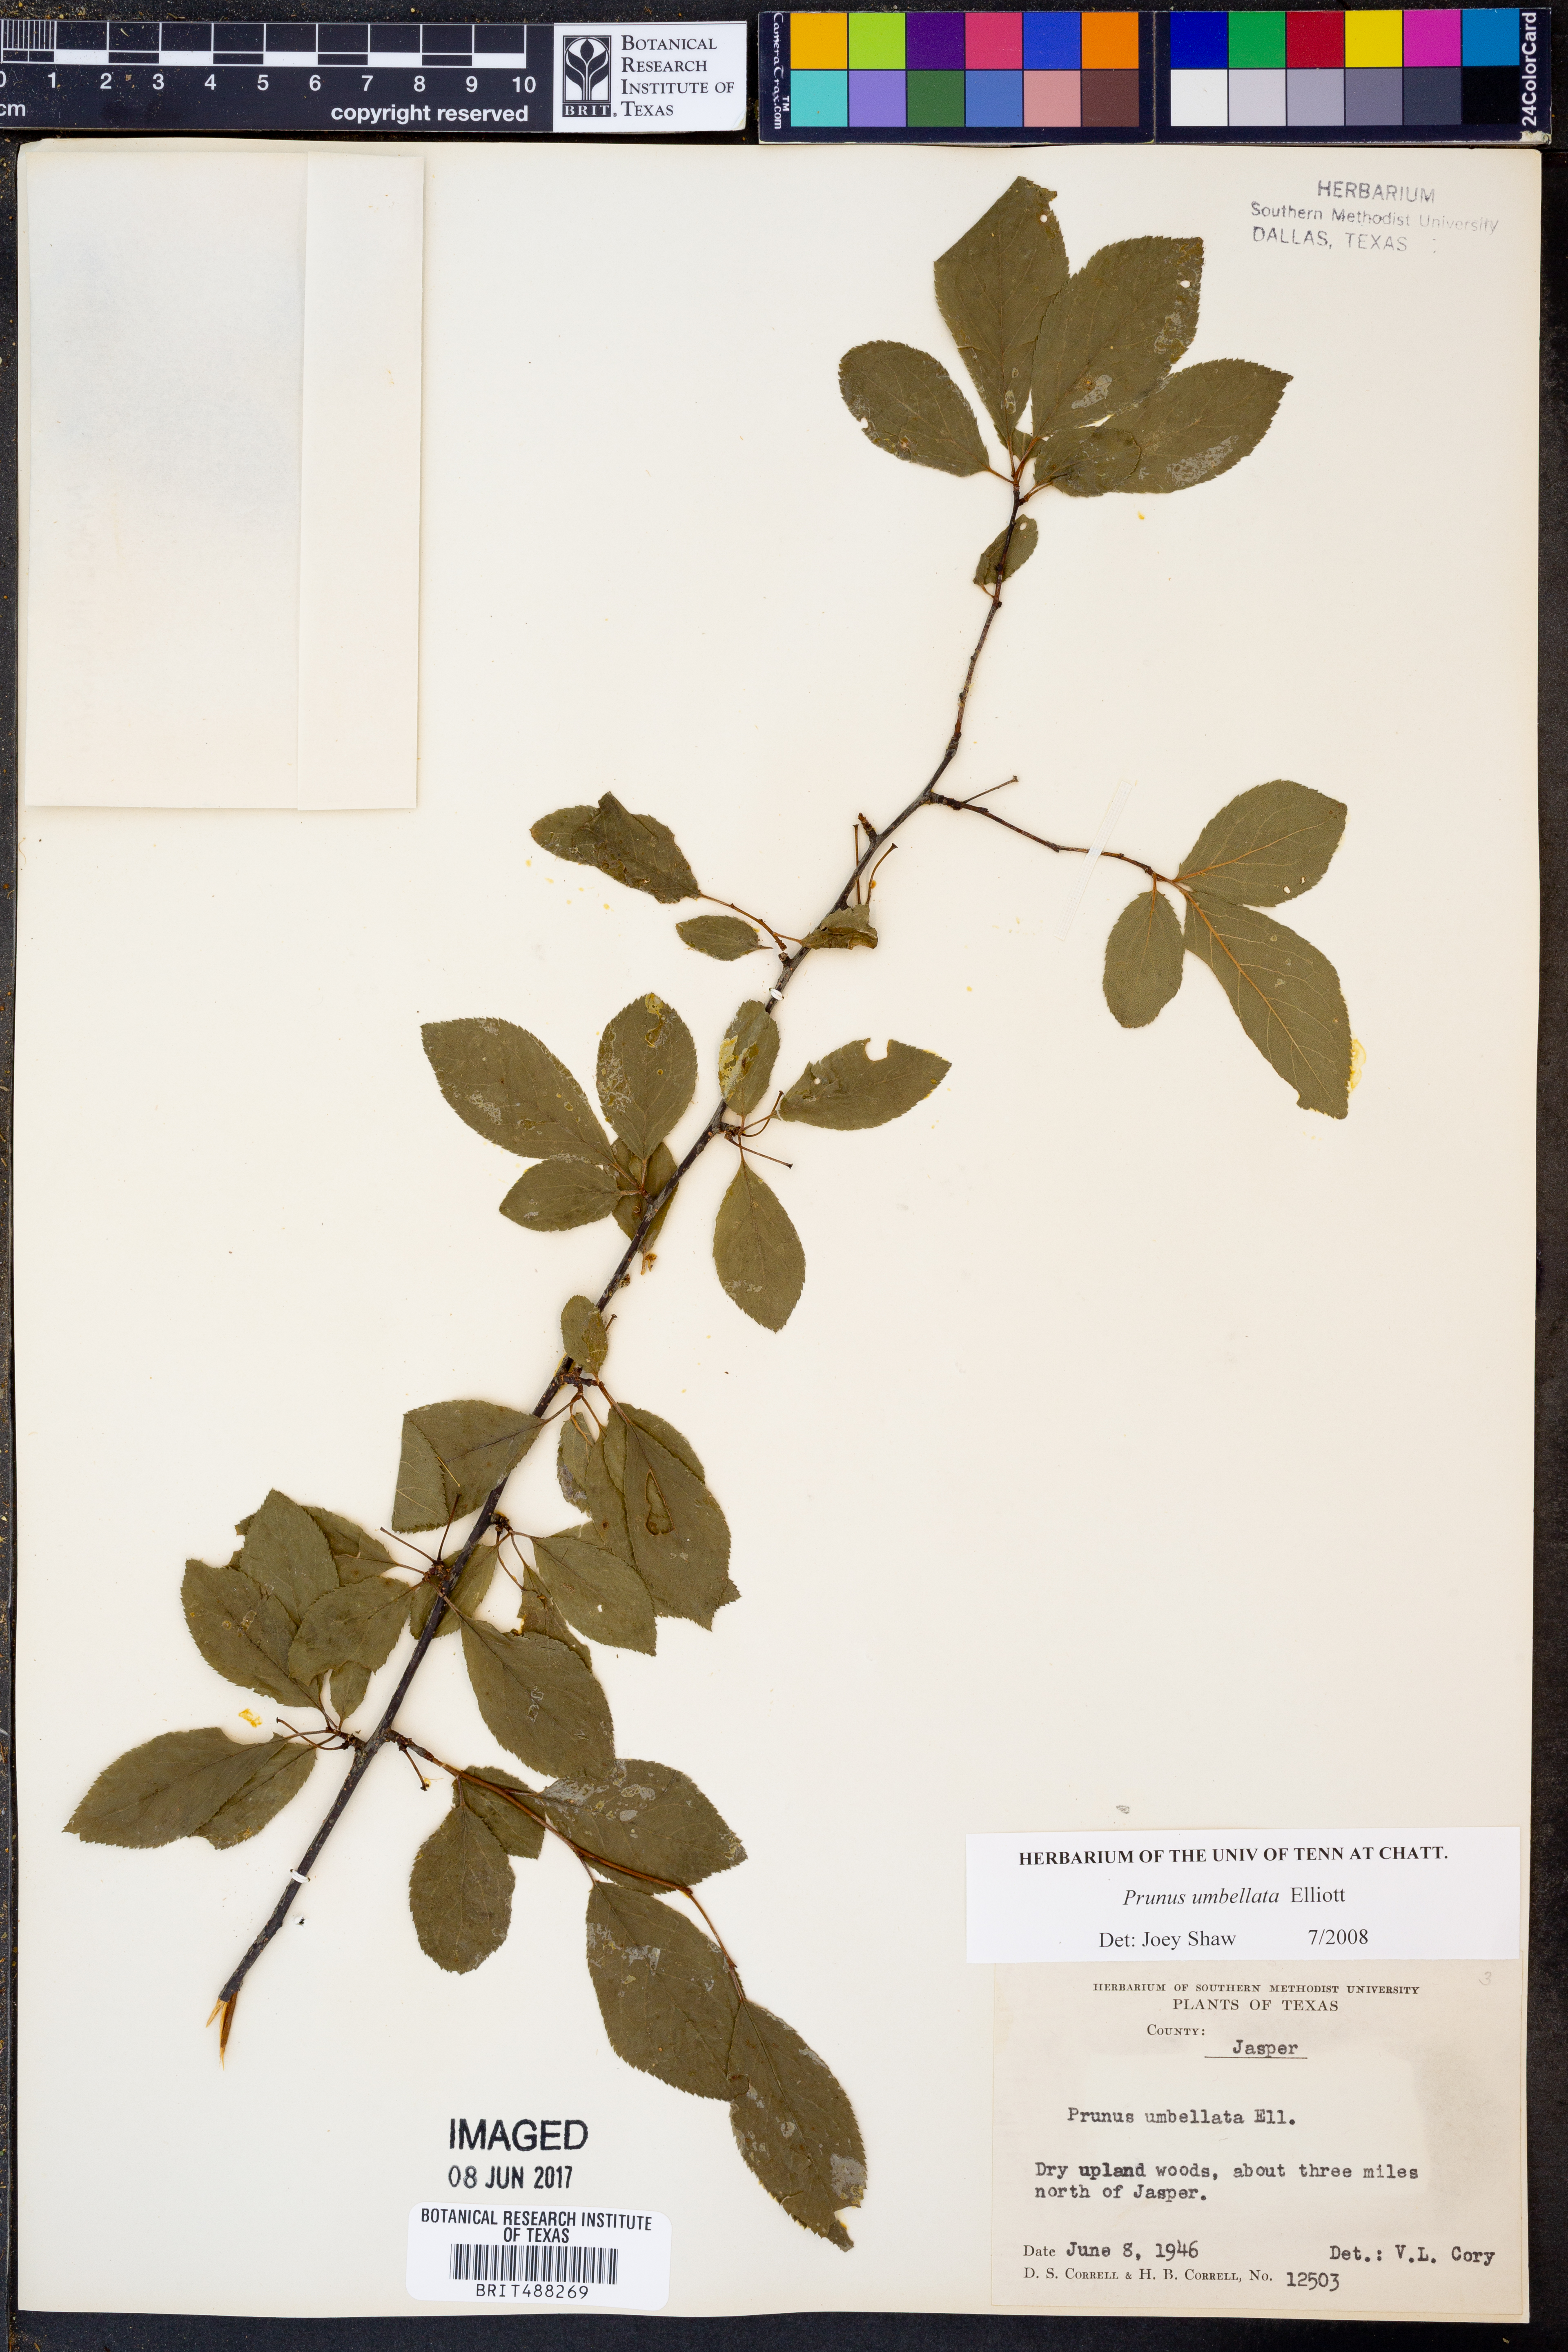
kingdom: Plantae
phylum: Tracheophyta
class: Magnoliopsida
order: Rosales
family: Rosaceae
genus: Prunus
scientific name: Prunus umbellata
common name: Allegheny plum
